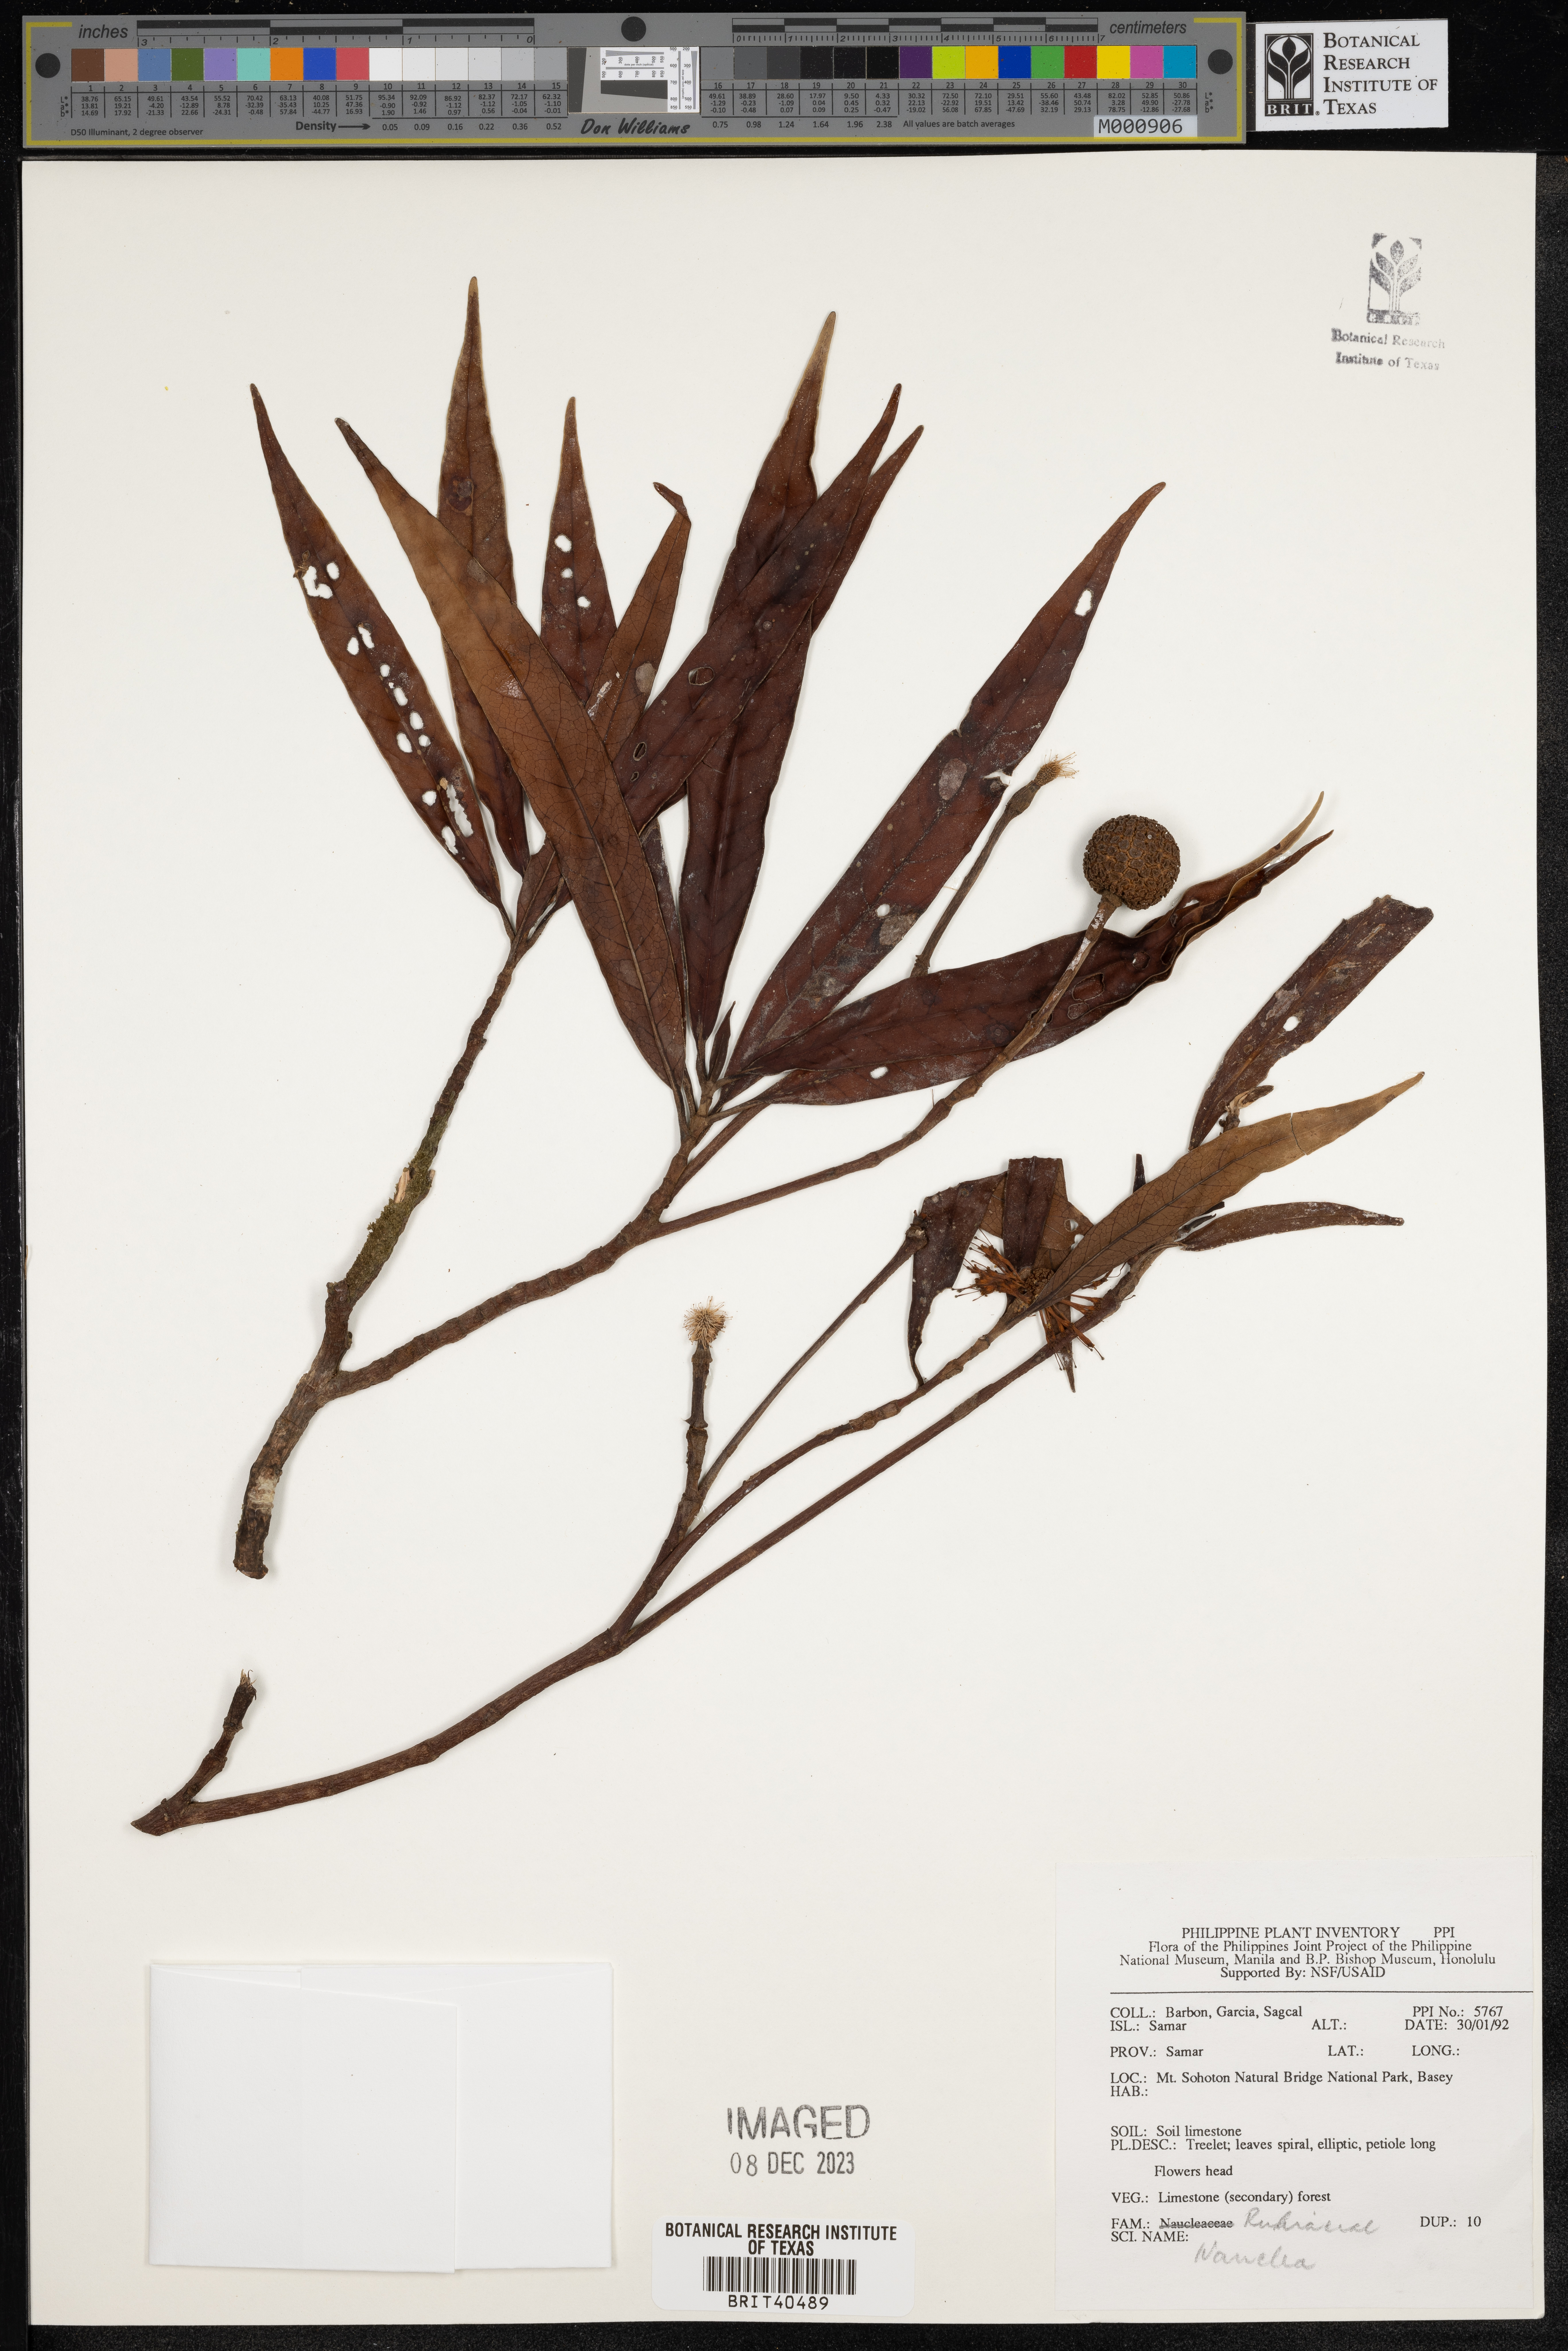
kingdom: Plantae
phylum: Tracheophyta
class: Magnoliopsida
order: Gentianales
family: Rubiaceae
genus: Nauclea
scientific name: Nauclea
